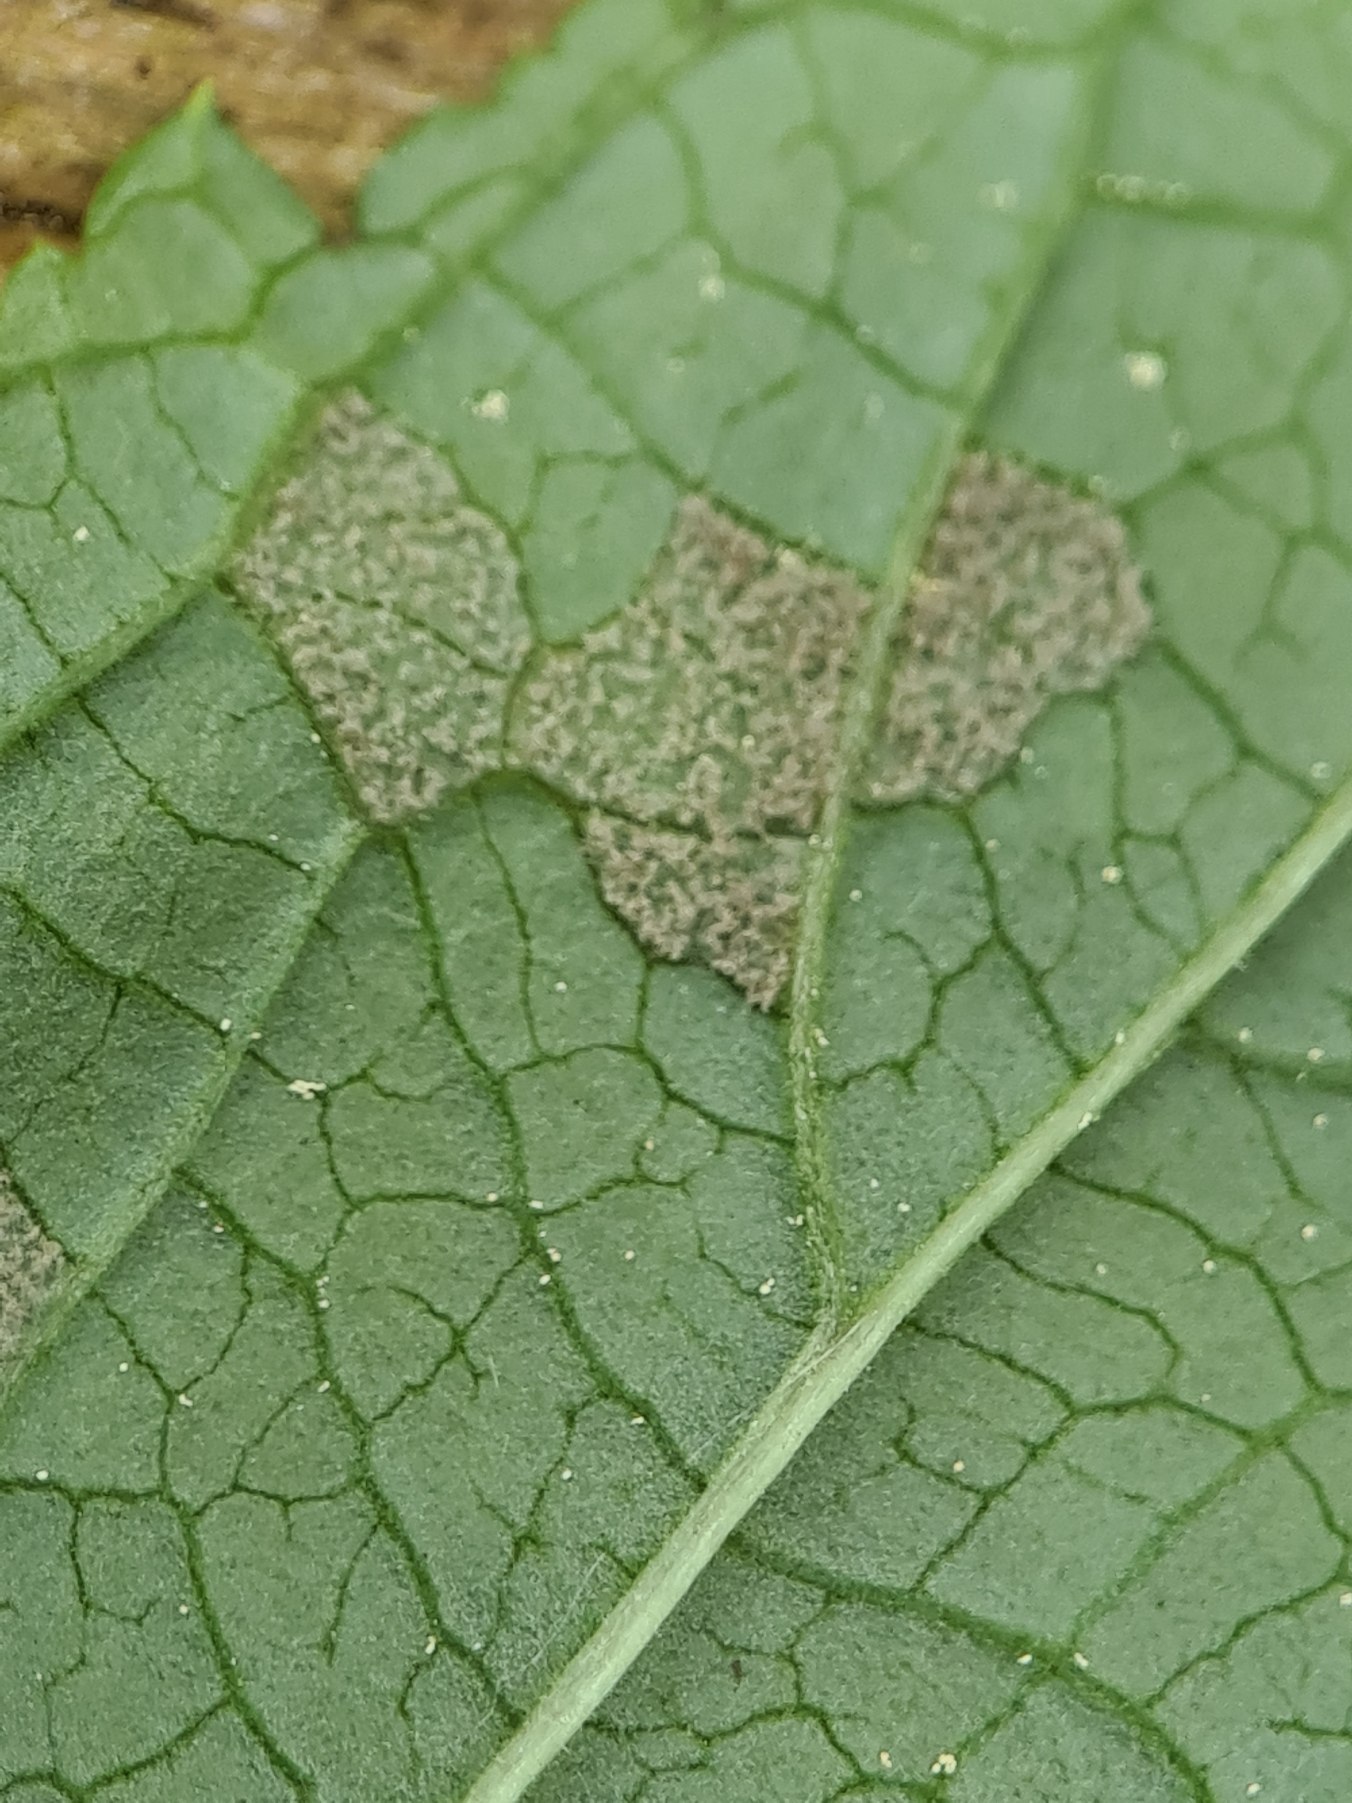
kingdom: Plantae
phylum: Tracheophyta
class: Magnoliopsida
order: Lamiales
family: Scrophulariaceae
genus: Scrophularia
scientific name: Scrophularia nodosa
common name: Knoldet brunrod
